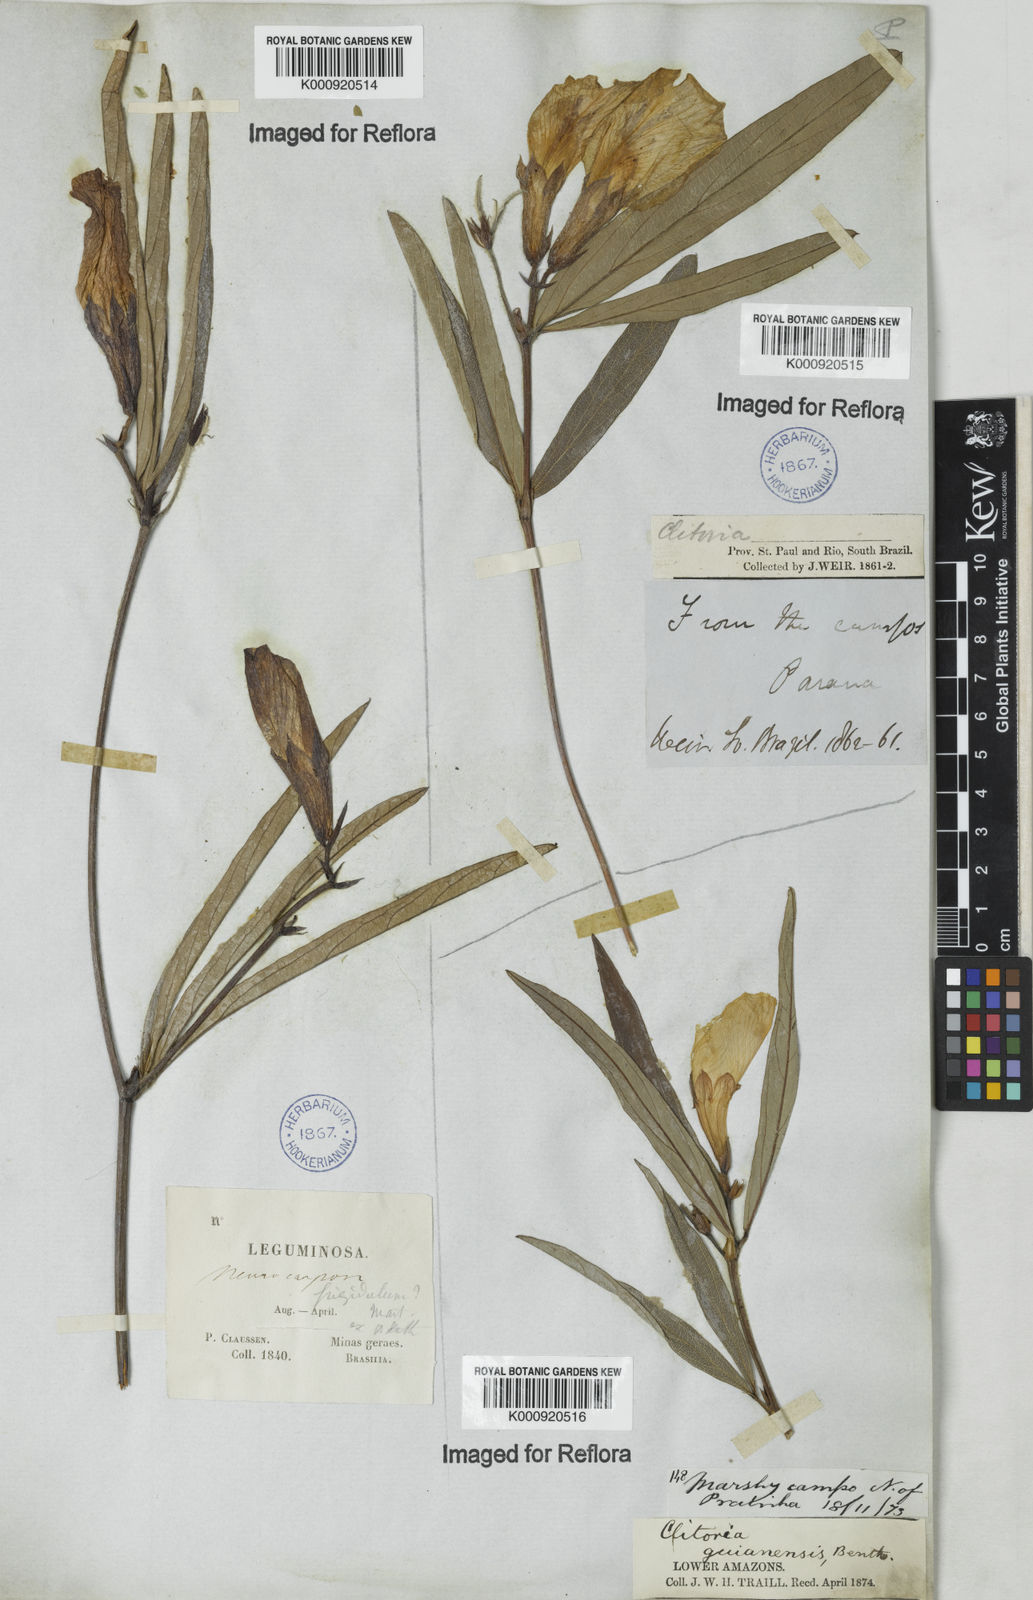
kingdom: Plantae
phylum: Tracheophyta
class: Magnoliopsida
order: Fabales
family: Fabaceae
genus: Clitoria
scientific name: Clitoria guianensis
